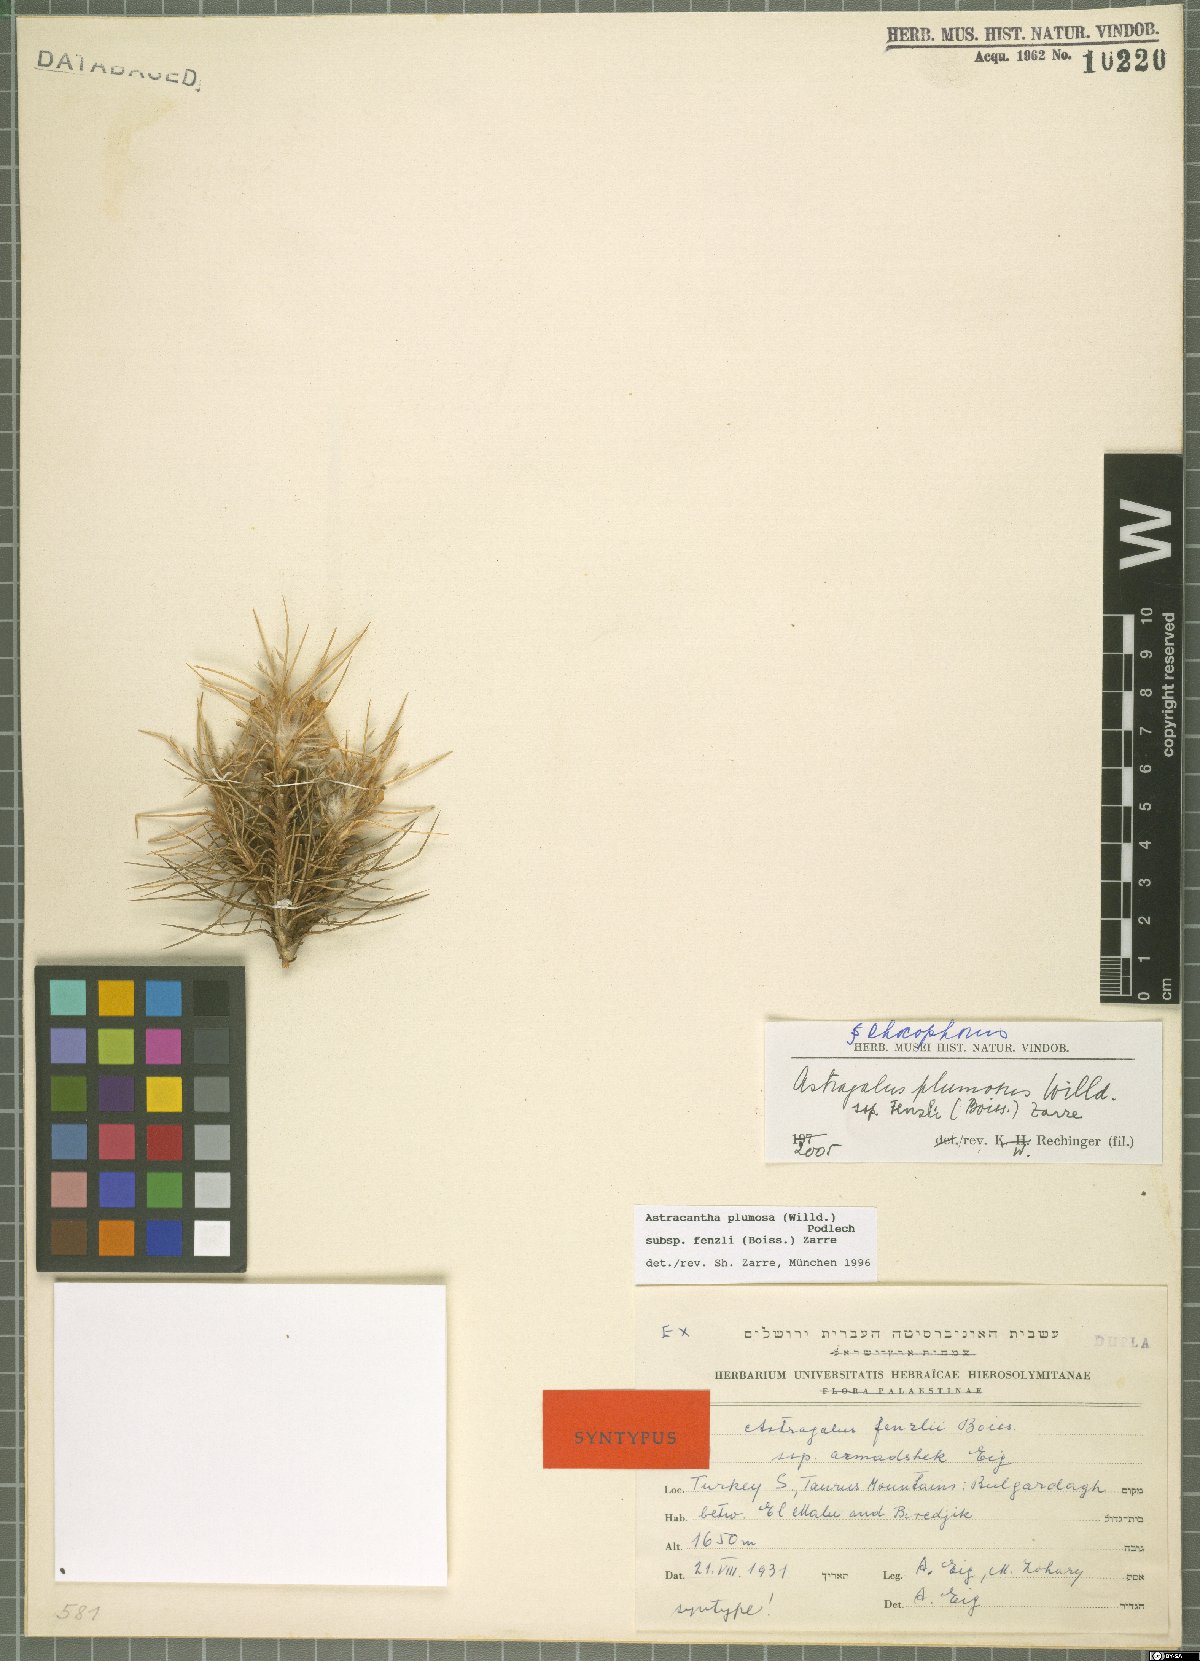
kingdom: Plantae
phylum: Tracheophyta
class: Magnoliopsida
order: Fabales
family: Fabaceae
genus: Astragalus
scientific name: Astragalus plumosus
